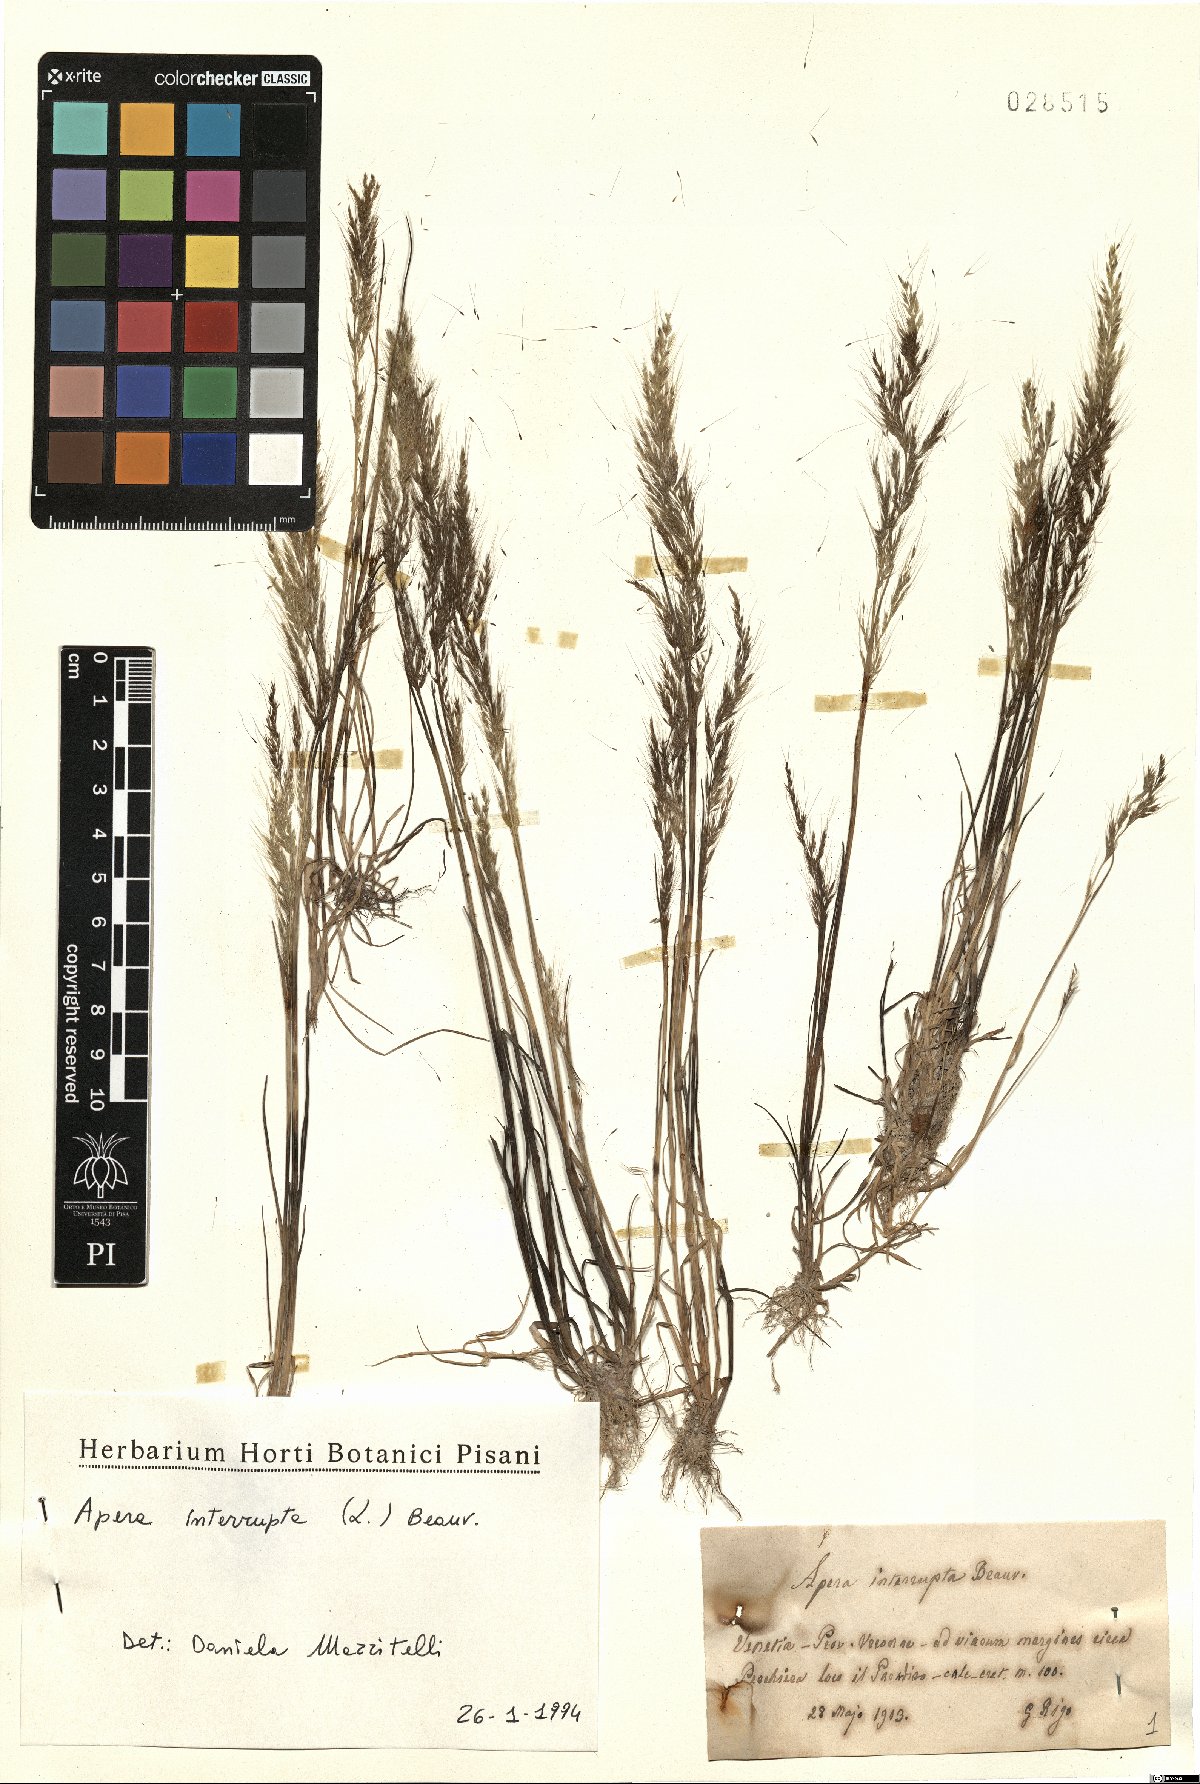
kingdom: Plantae
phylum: Tracheophyta
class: Liliopsida
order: Poales
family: Poaceae
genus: Apera
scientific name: Apera interrupta
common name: Dense silky-bent
